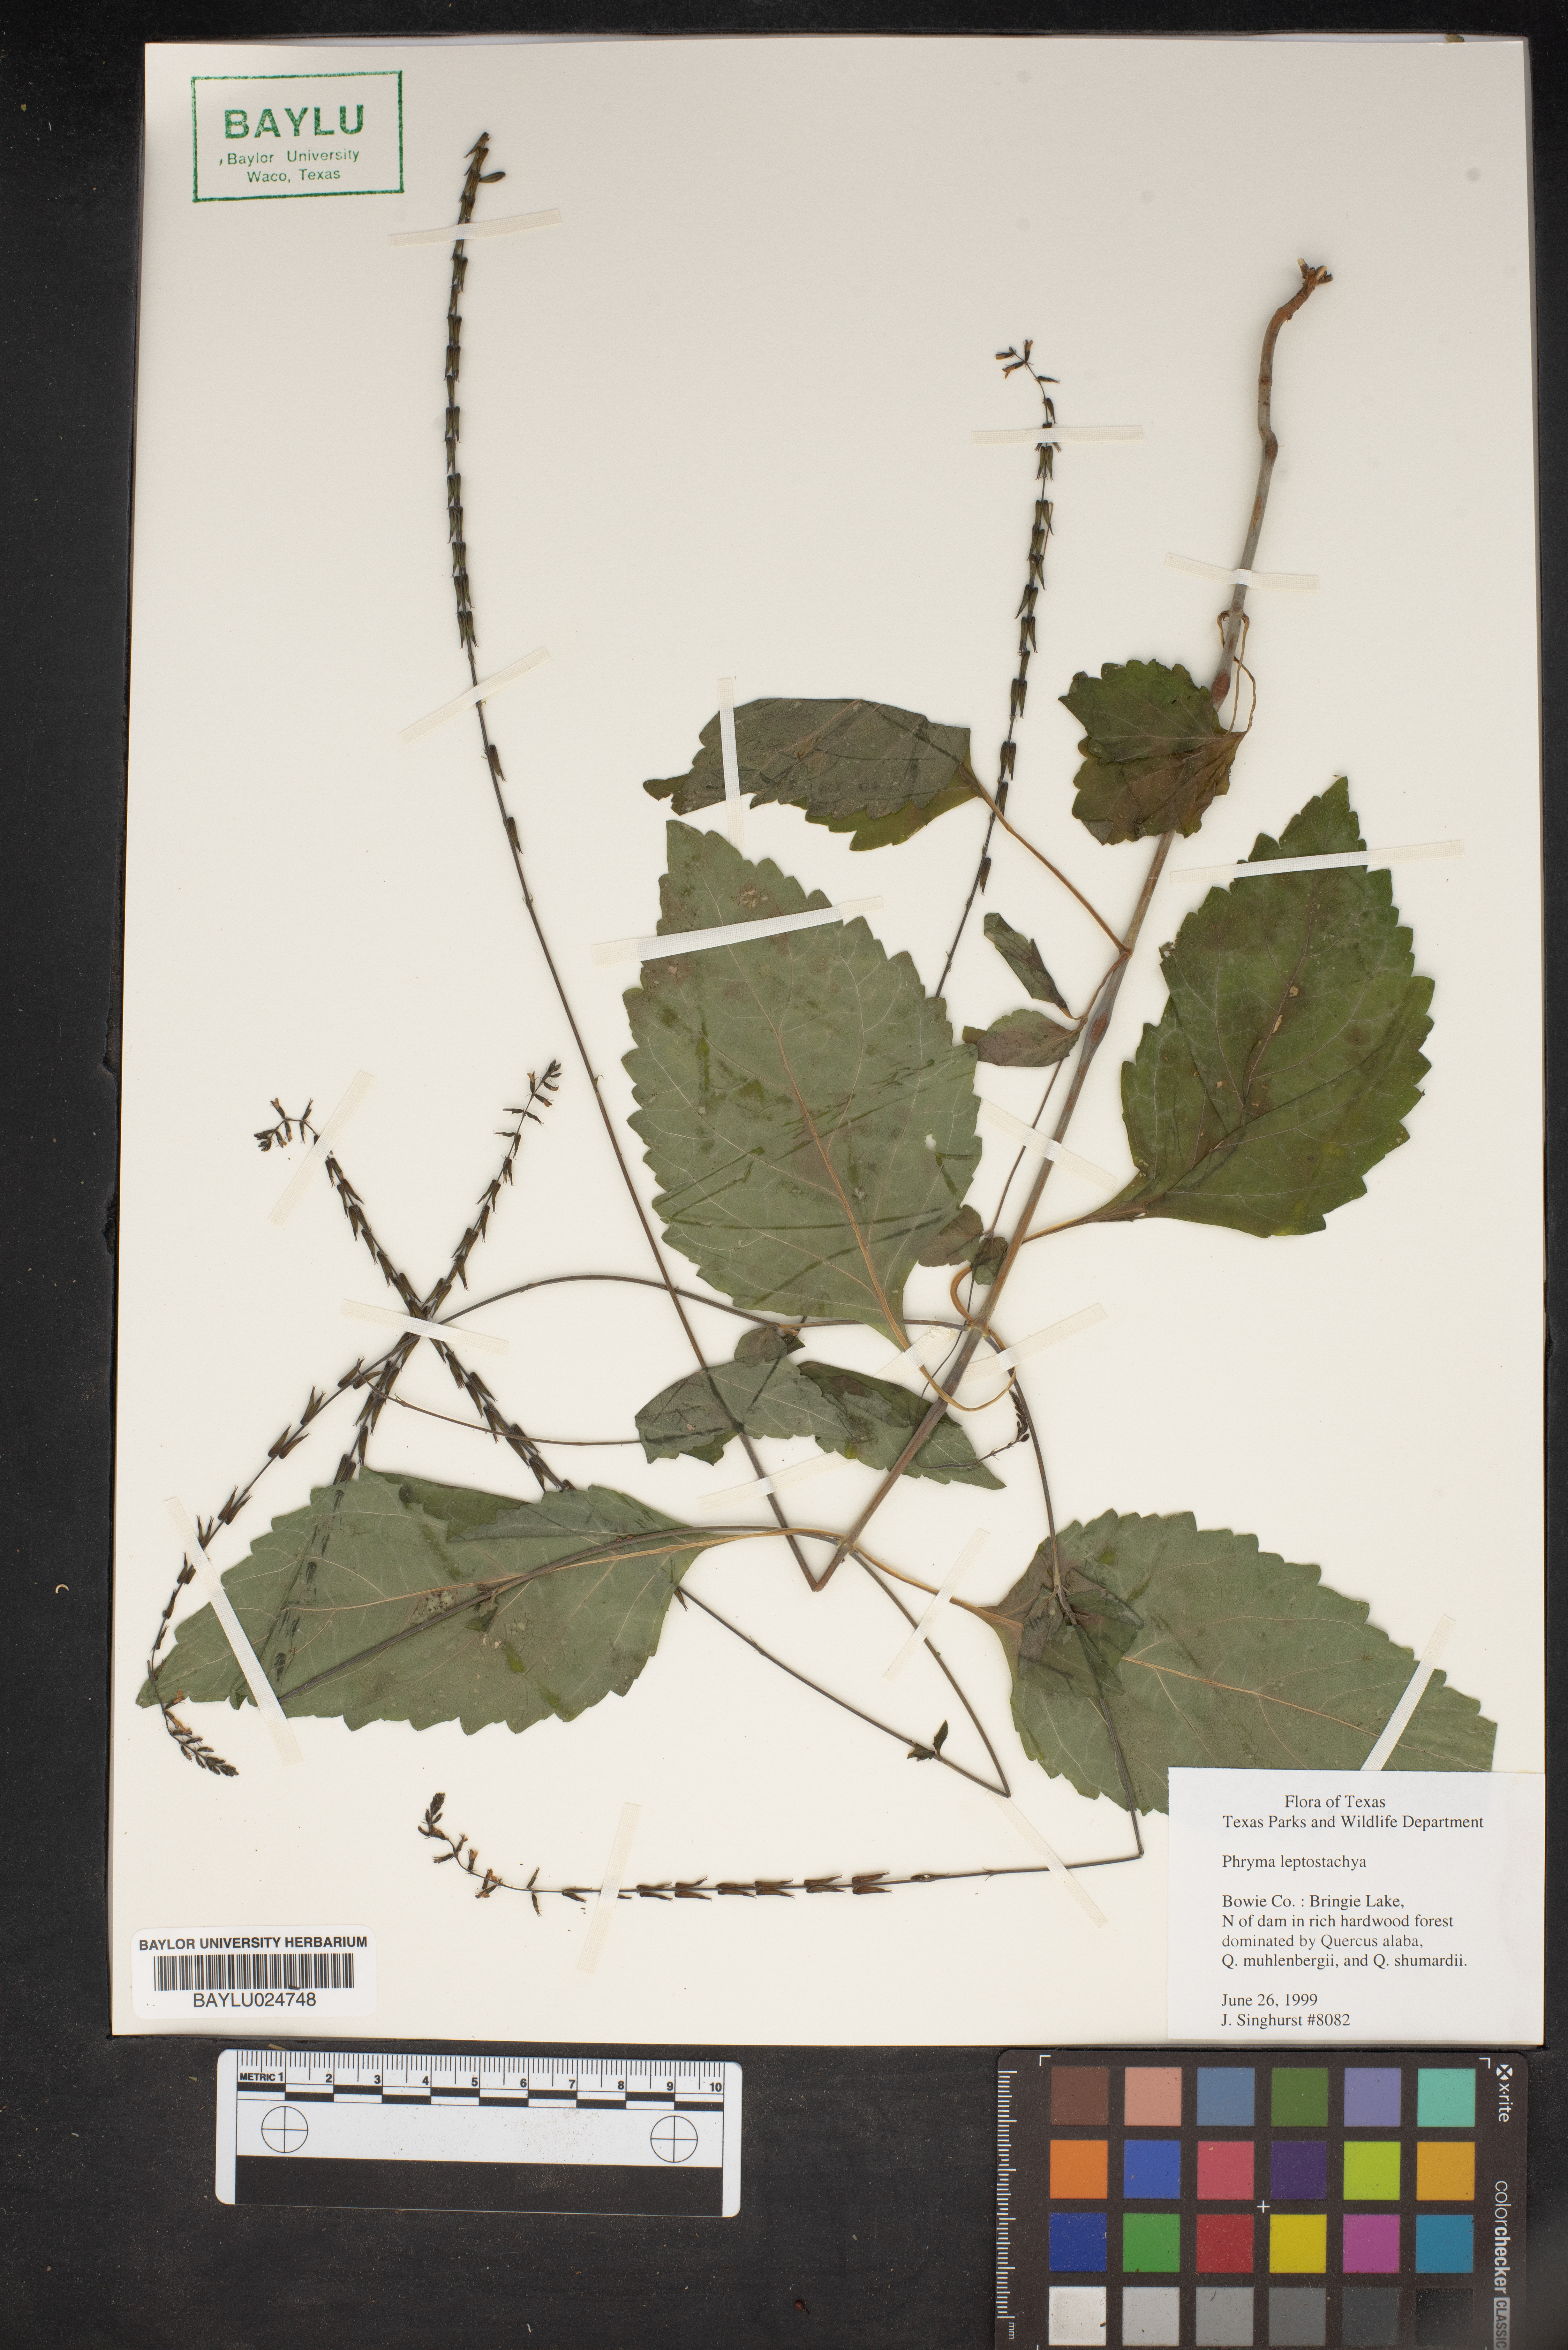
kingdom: Plantae
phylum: Tracheophyta
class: Magnoliopsida
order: Lamiales
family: Phrymaceae
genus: Phryma
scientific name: Phryma leptostachya
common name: American lopseed
